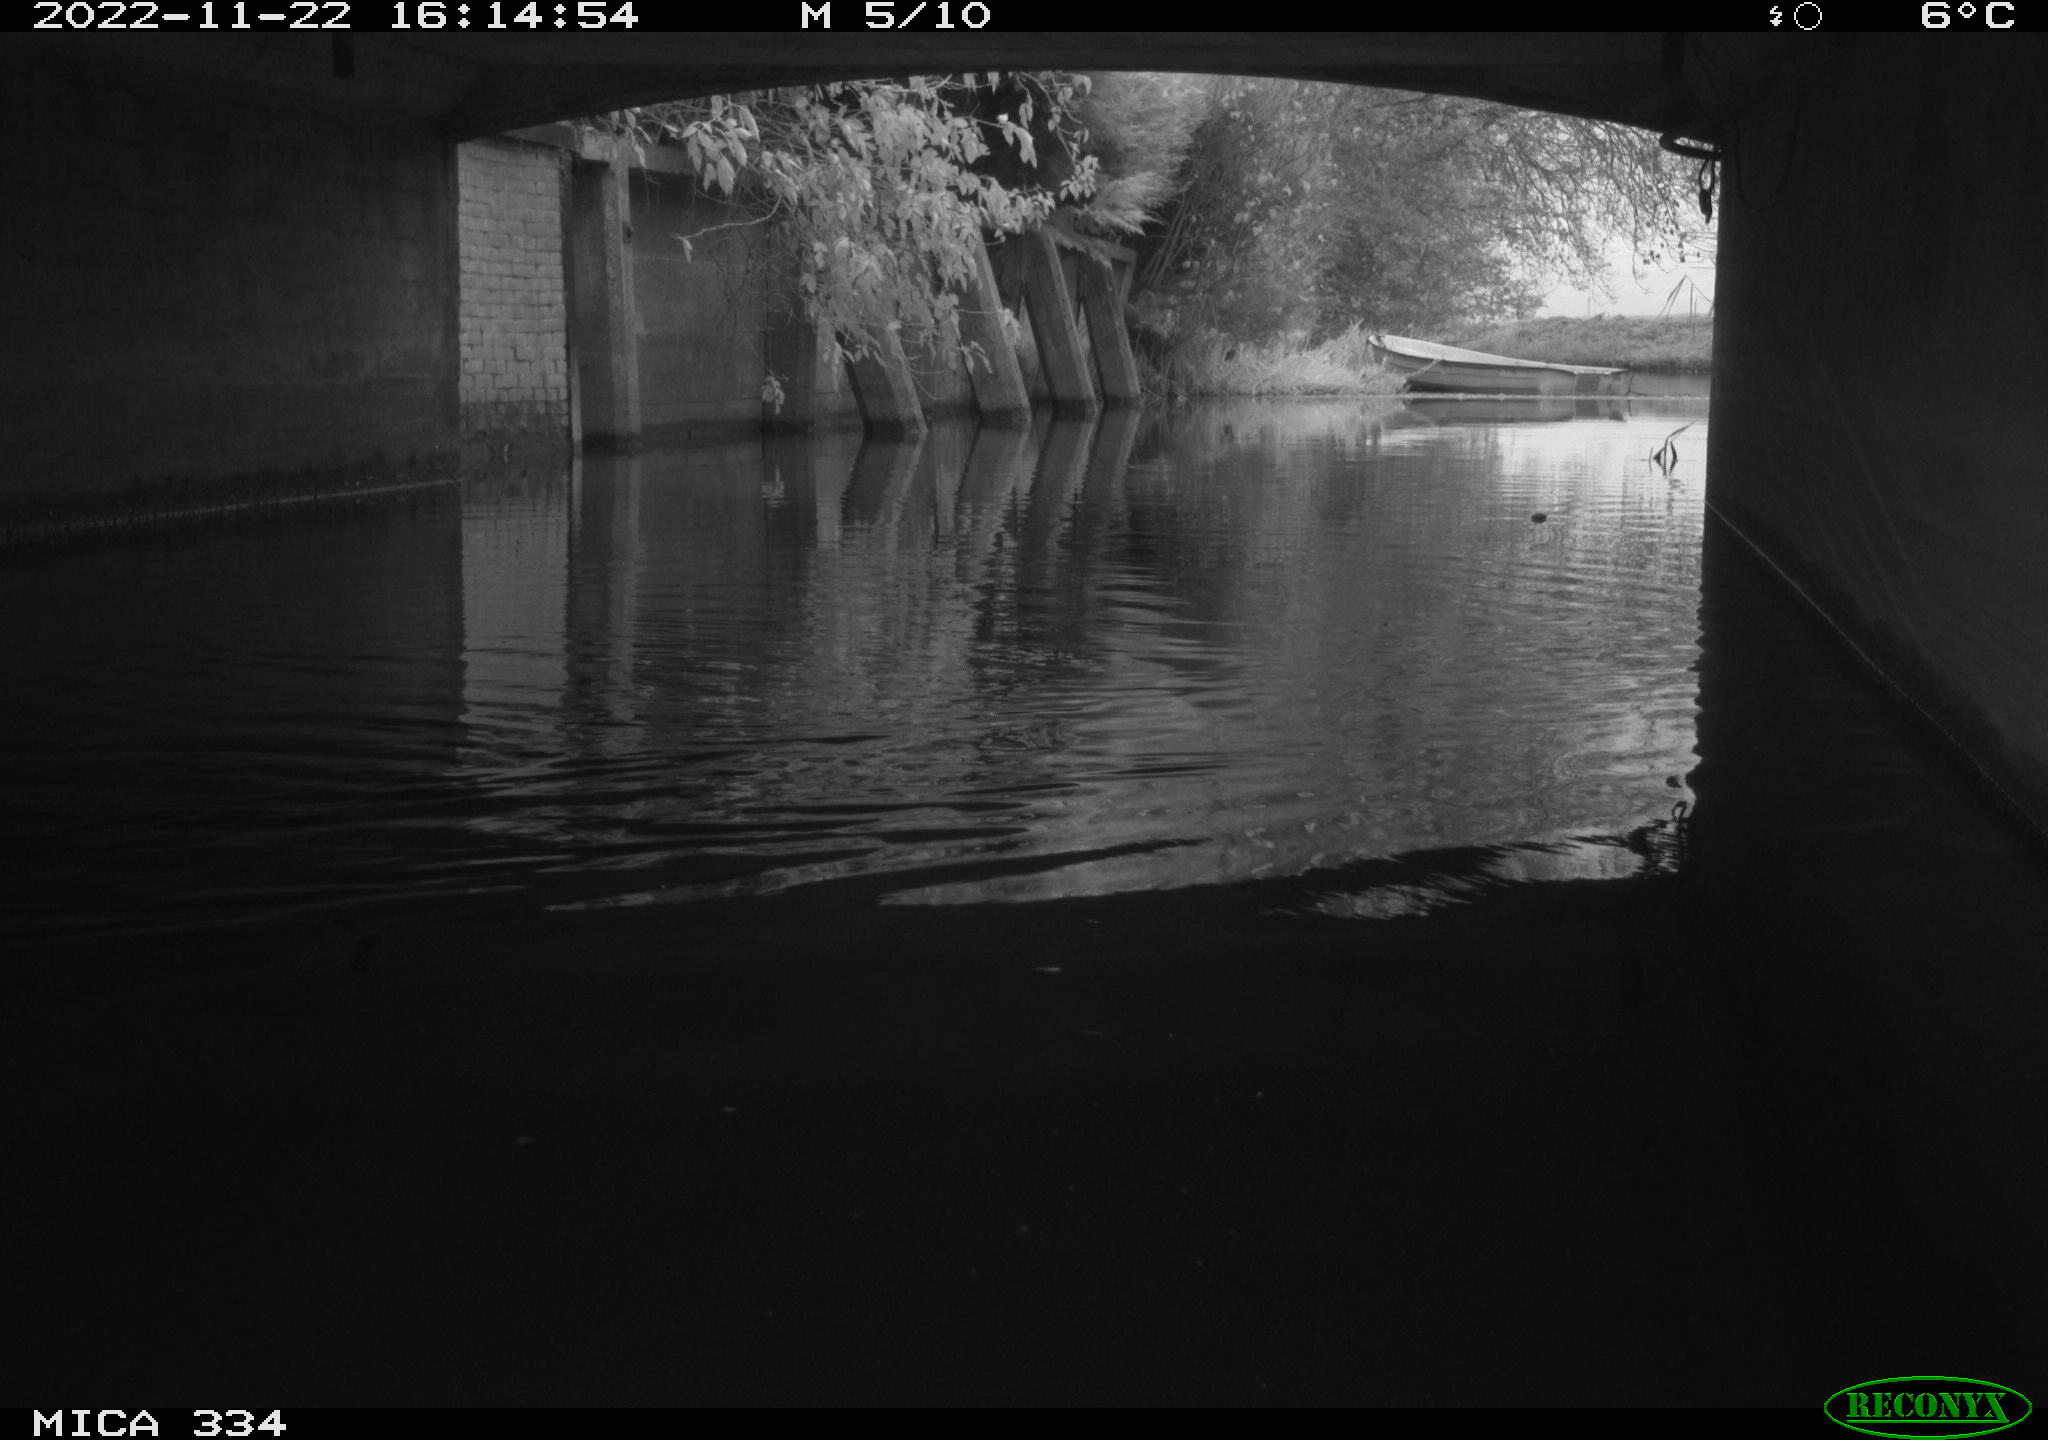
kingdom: Animalia
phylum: Chordata
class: Aves
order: Anseriformes
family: Anatidae
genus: Anas
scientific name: Anas
